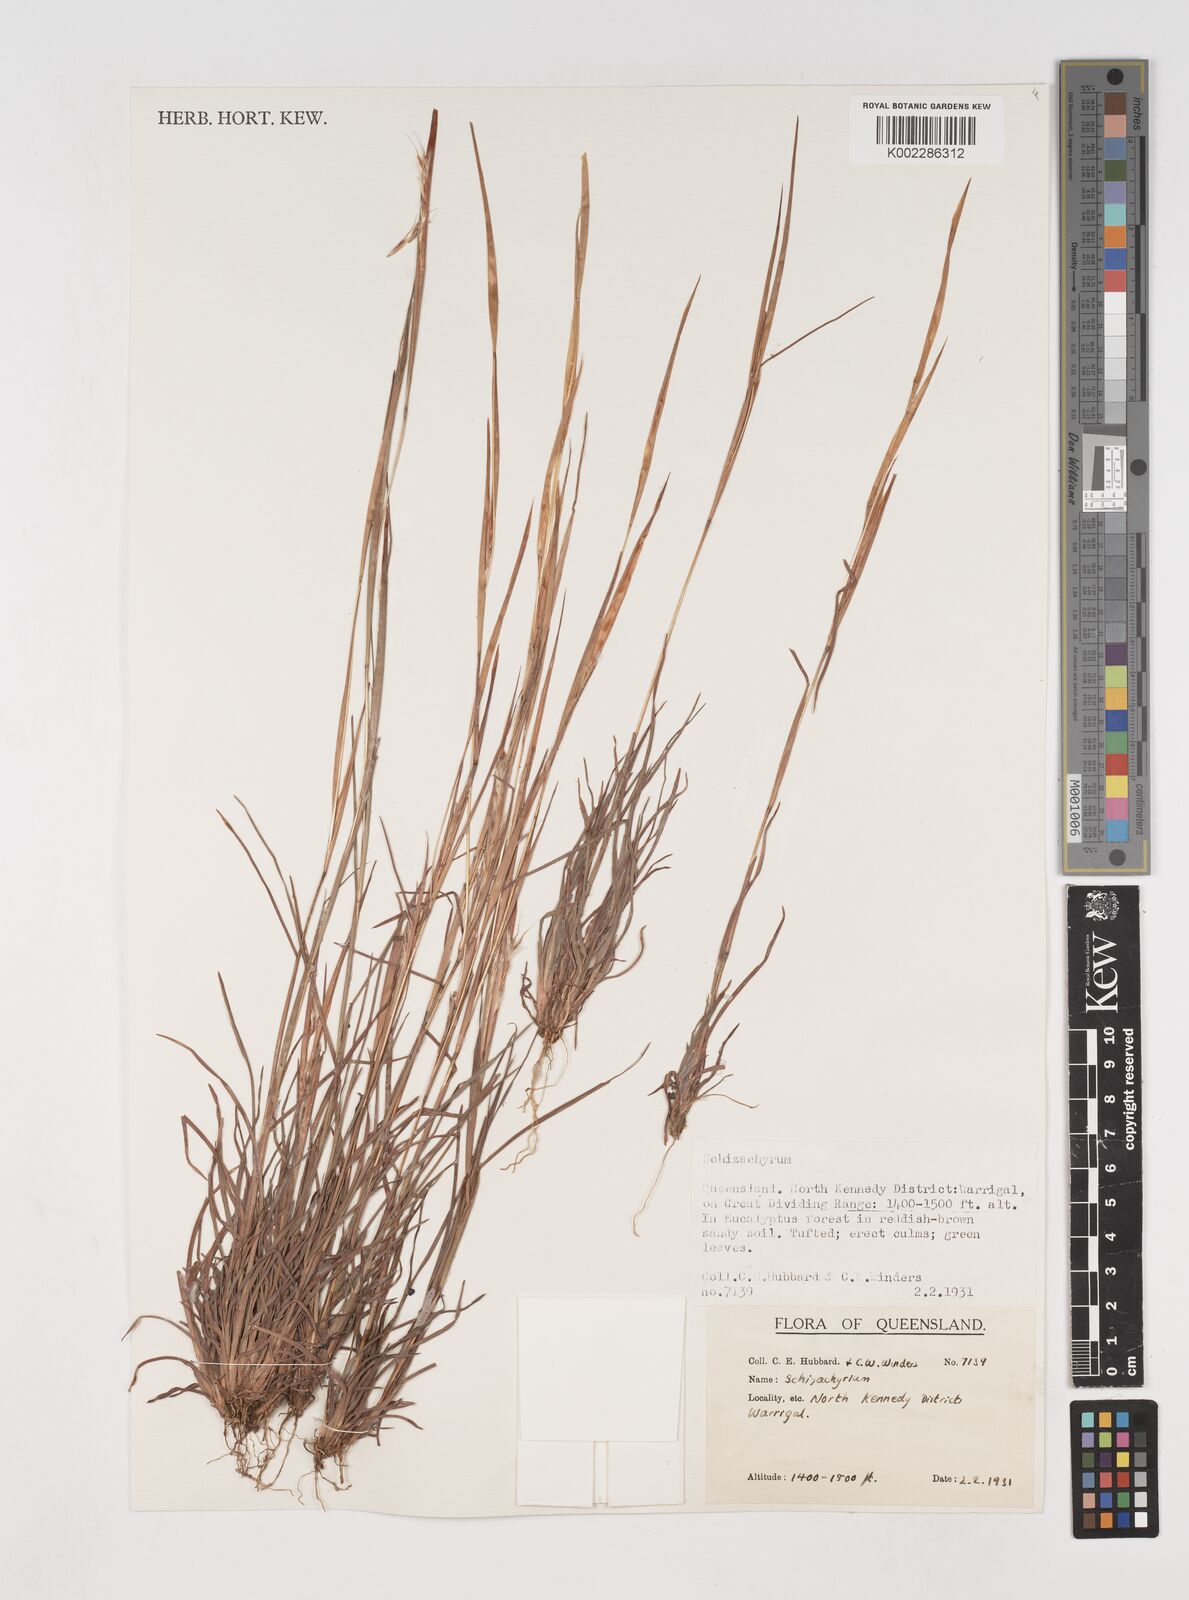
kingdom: Plantae
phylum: Tracheophyta
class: Liliopsida
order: Poales
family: Poaceae
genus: Schizachyrium
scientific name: Schizachyrium
